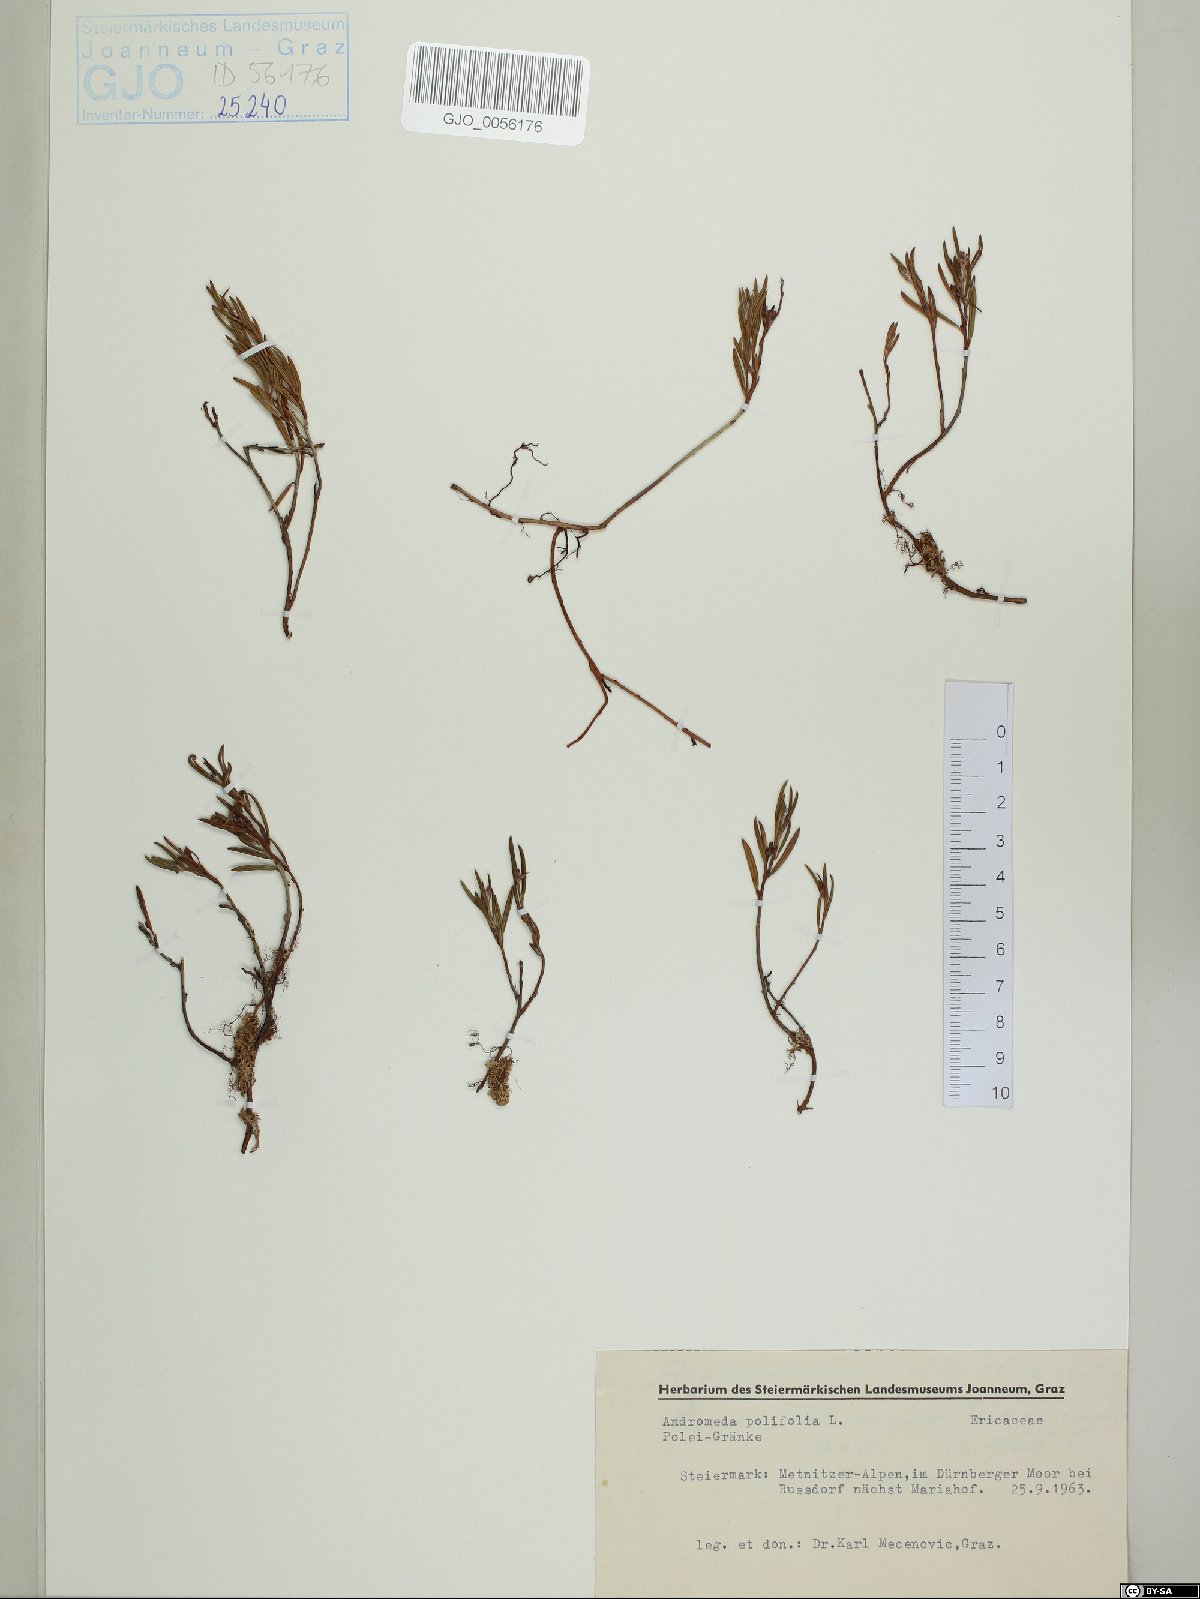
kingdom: Plantae
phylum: Tracheophyta
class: Magnoliopsida
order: Ericales
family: Ericaceae
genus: Andromeda
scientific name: Andromeda polifolia
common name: Bog-rosemary
